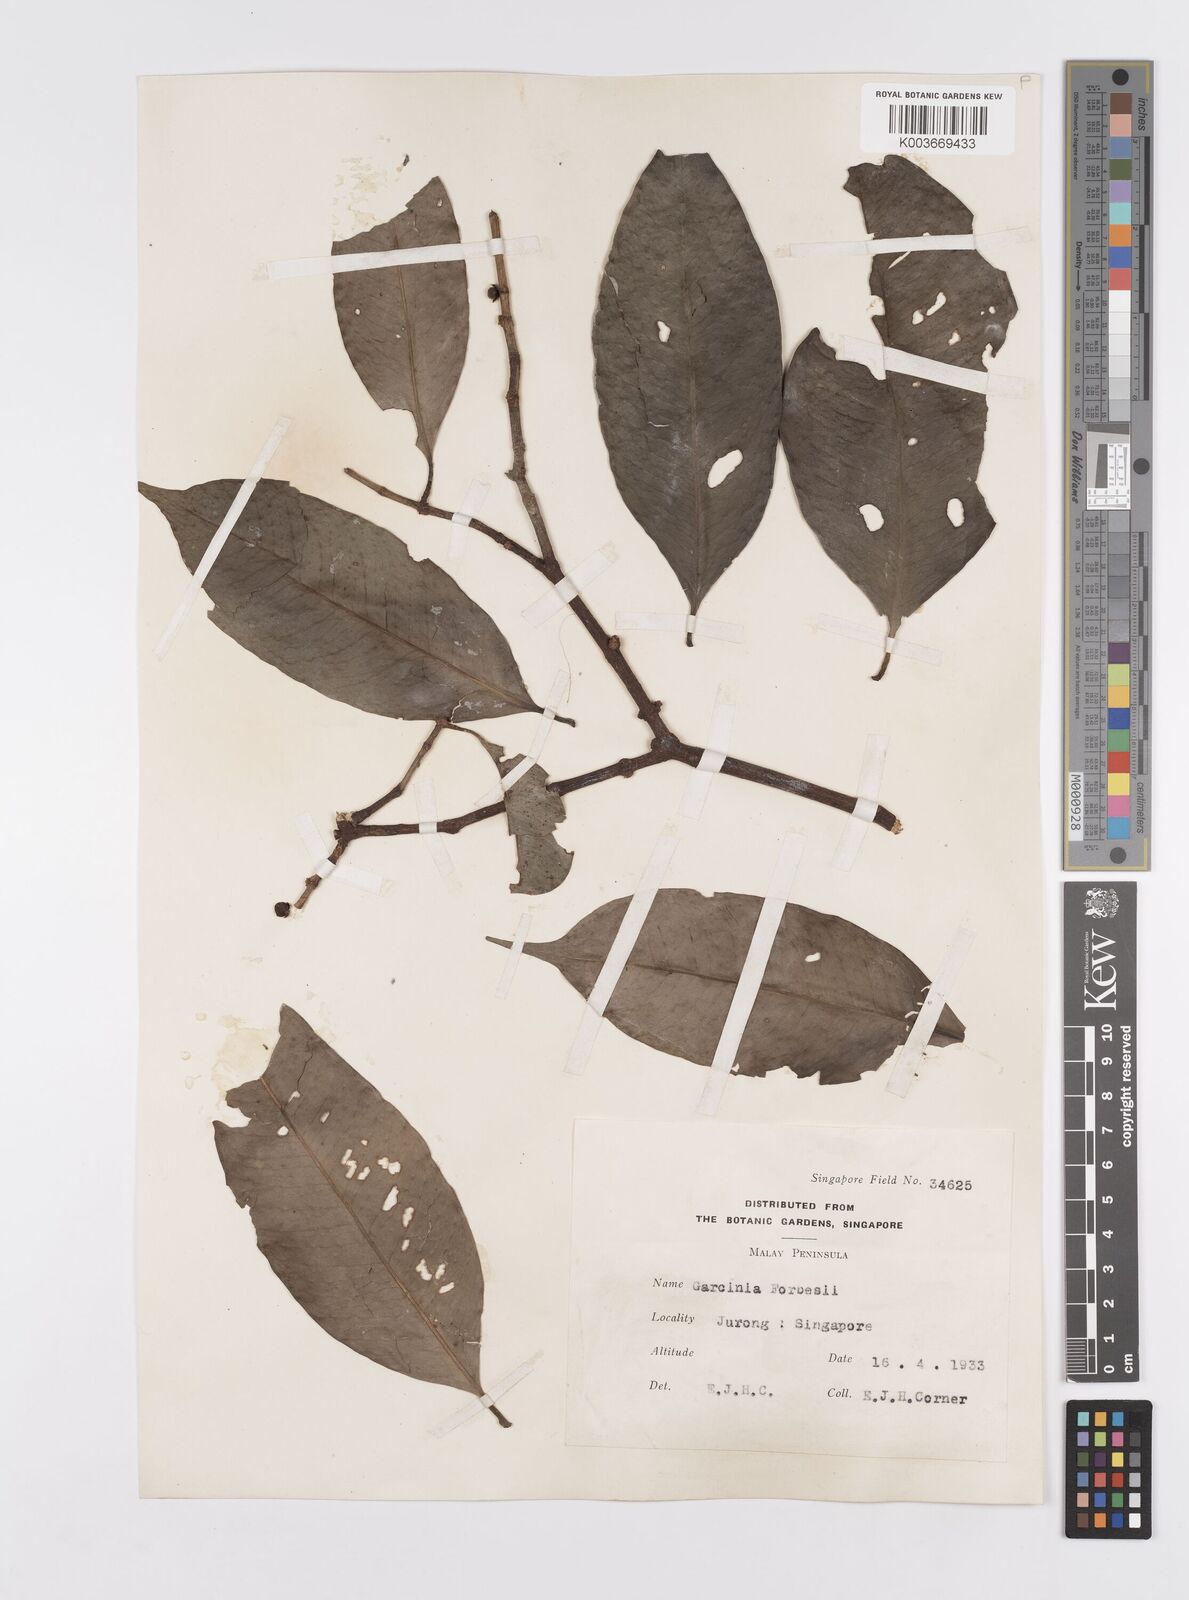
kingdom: Plantae
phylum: Tracheophyta
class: Magnoliopsida
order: Malpighiales
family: Clusiaceae
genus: Garcinia
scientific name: Garcinia forbesii
